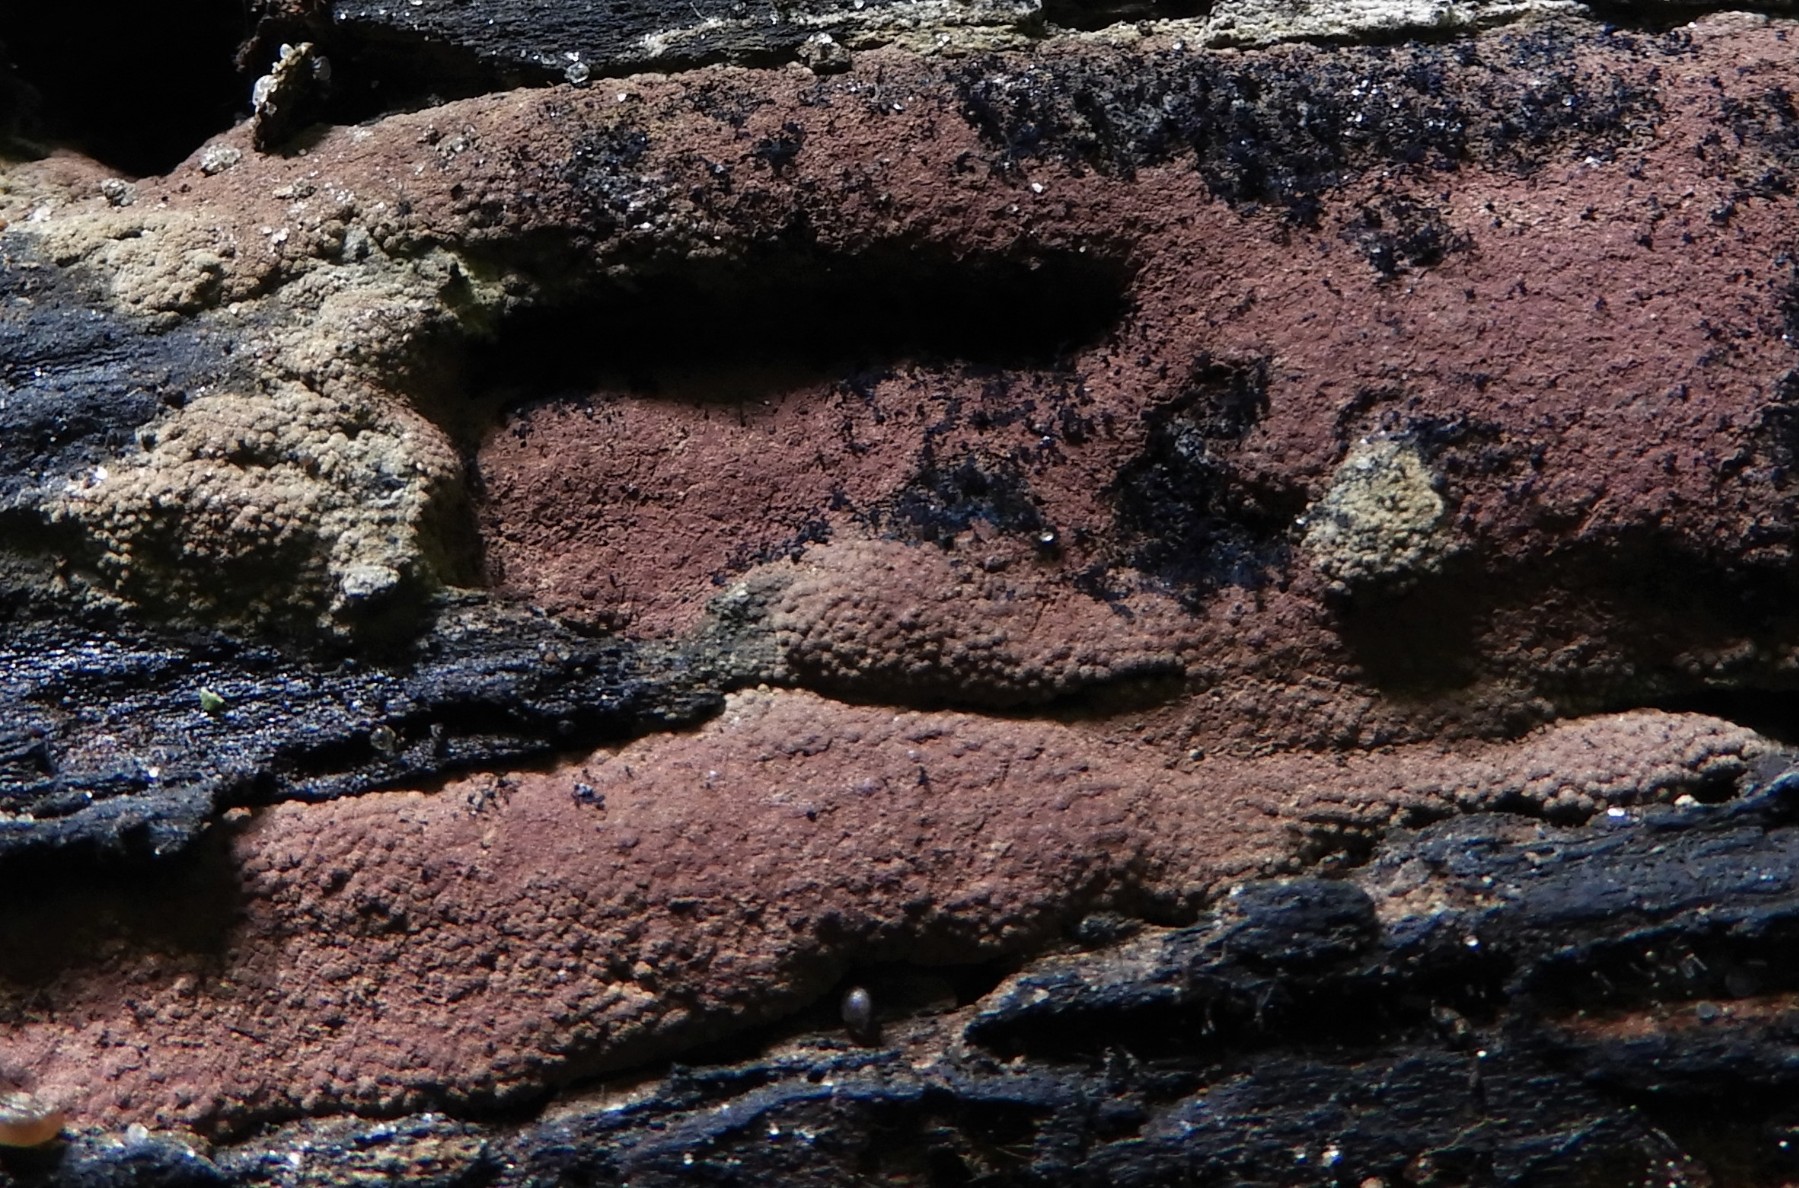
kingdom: Fungi
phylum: Ascomycota
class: Sordariomycetes
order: Xylariales
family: Hypoxylaceae
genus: Hypoxylon
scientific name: Hypoxylon
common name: kulbær
